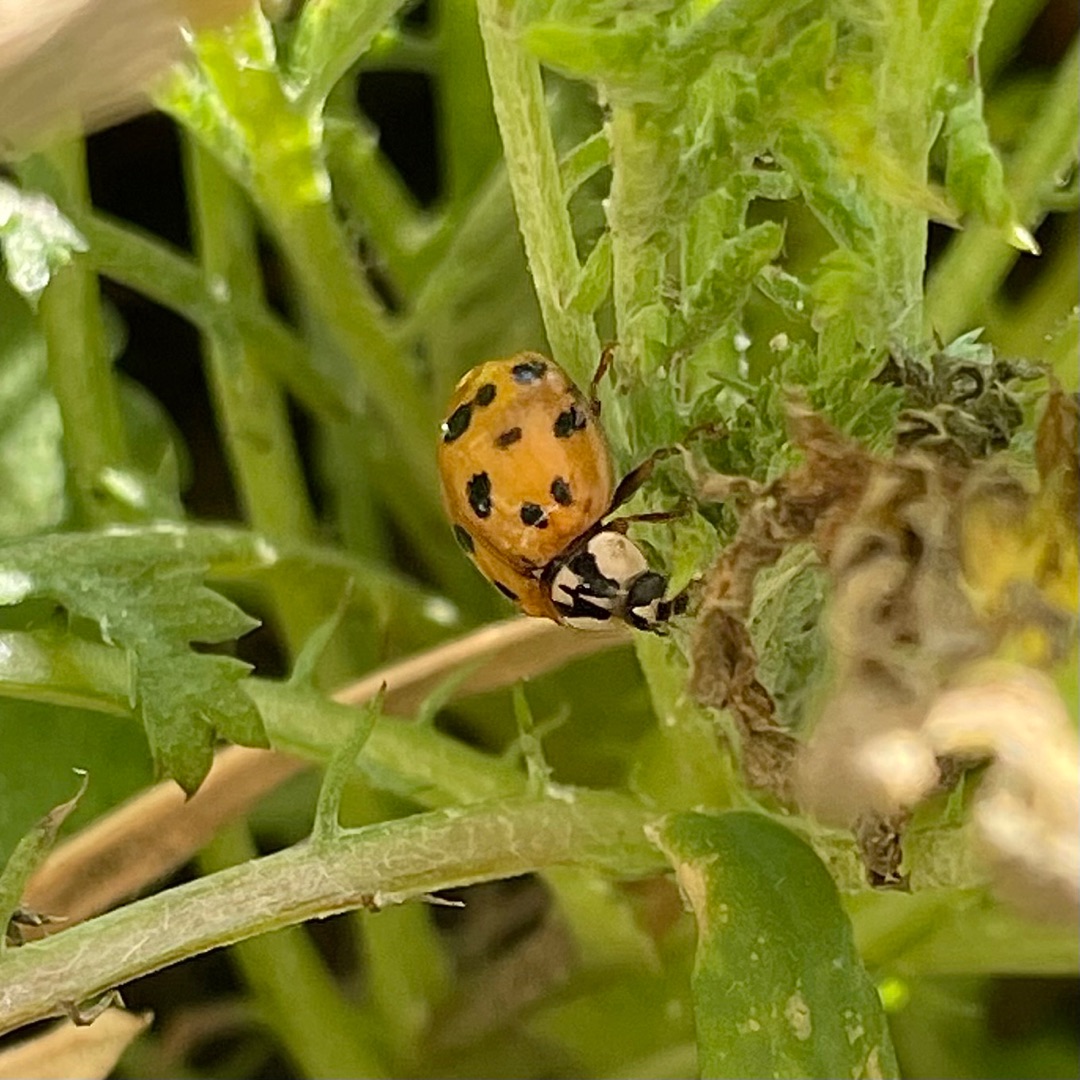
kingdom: Animalia
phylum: Arthropoda
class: Insecta
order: Coleoptera
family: Coccinellidae
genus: Harmonia
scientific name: Harmonia axyridis
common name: Harlekinmariehøne
